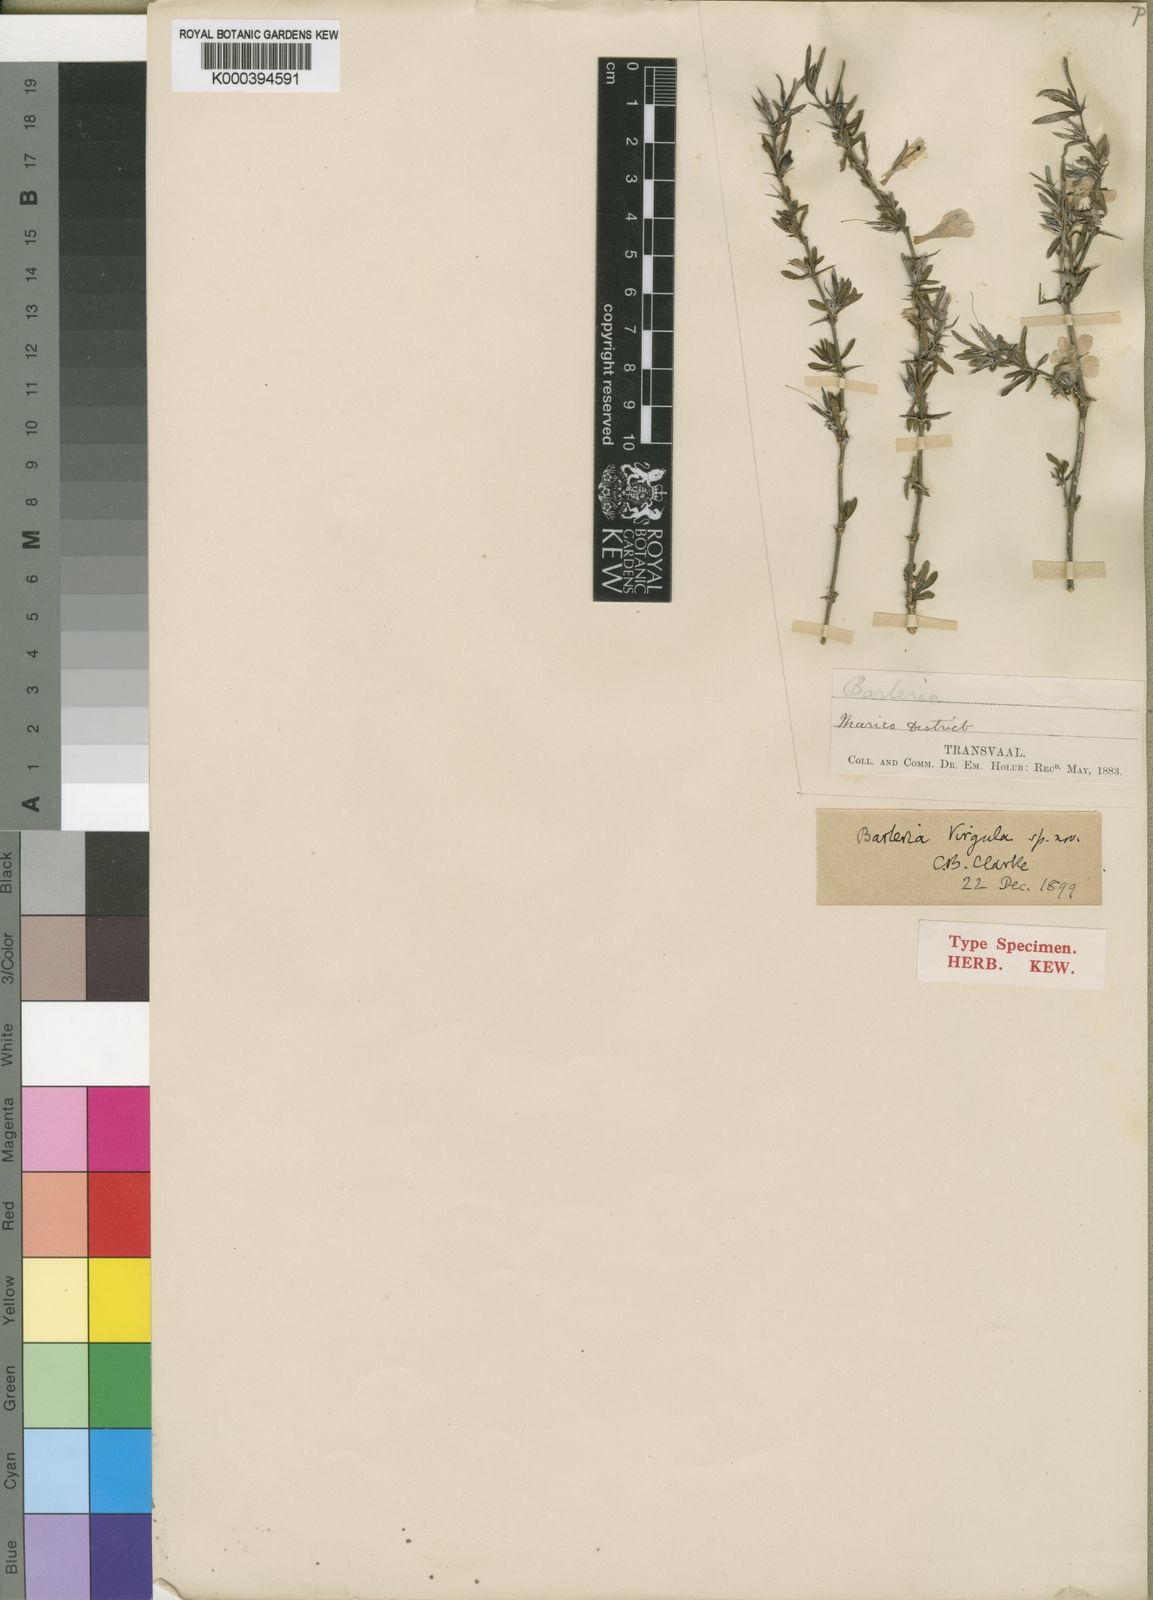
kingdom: Plantae
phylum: Tracheophyta
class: Magnoliopsida
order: Lamiales
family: Acanthaceae
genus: Barleria
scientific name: Barleria virgula
